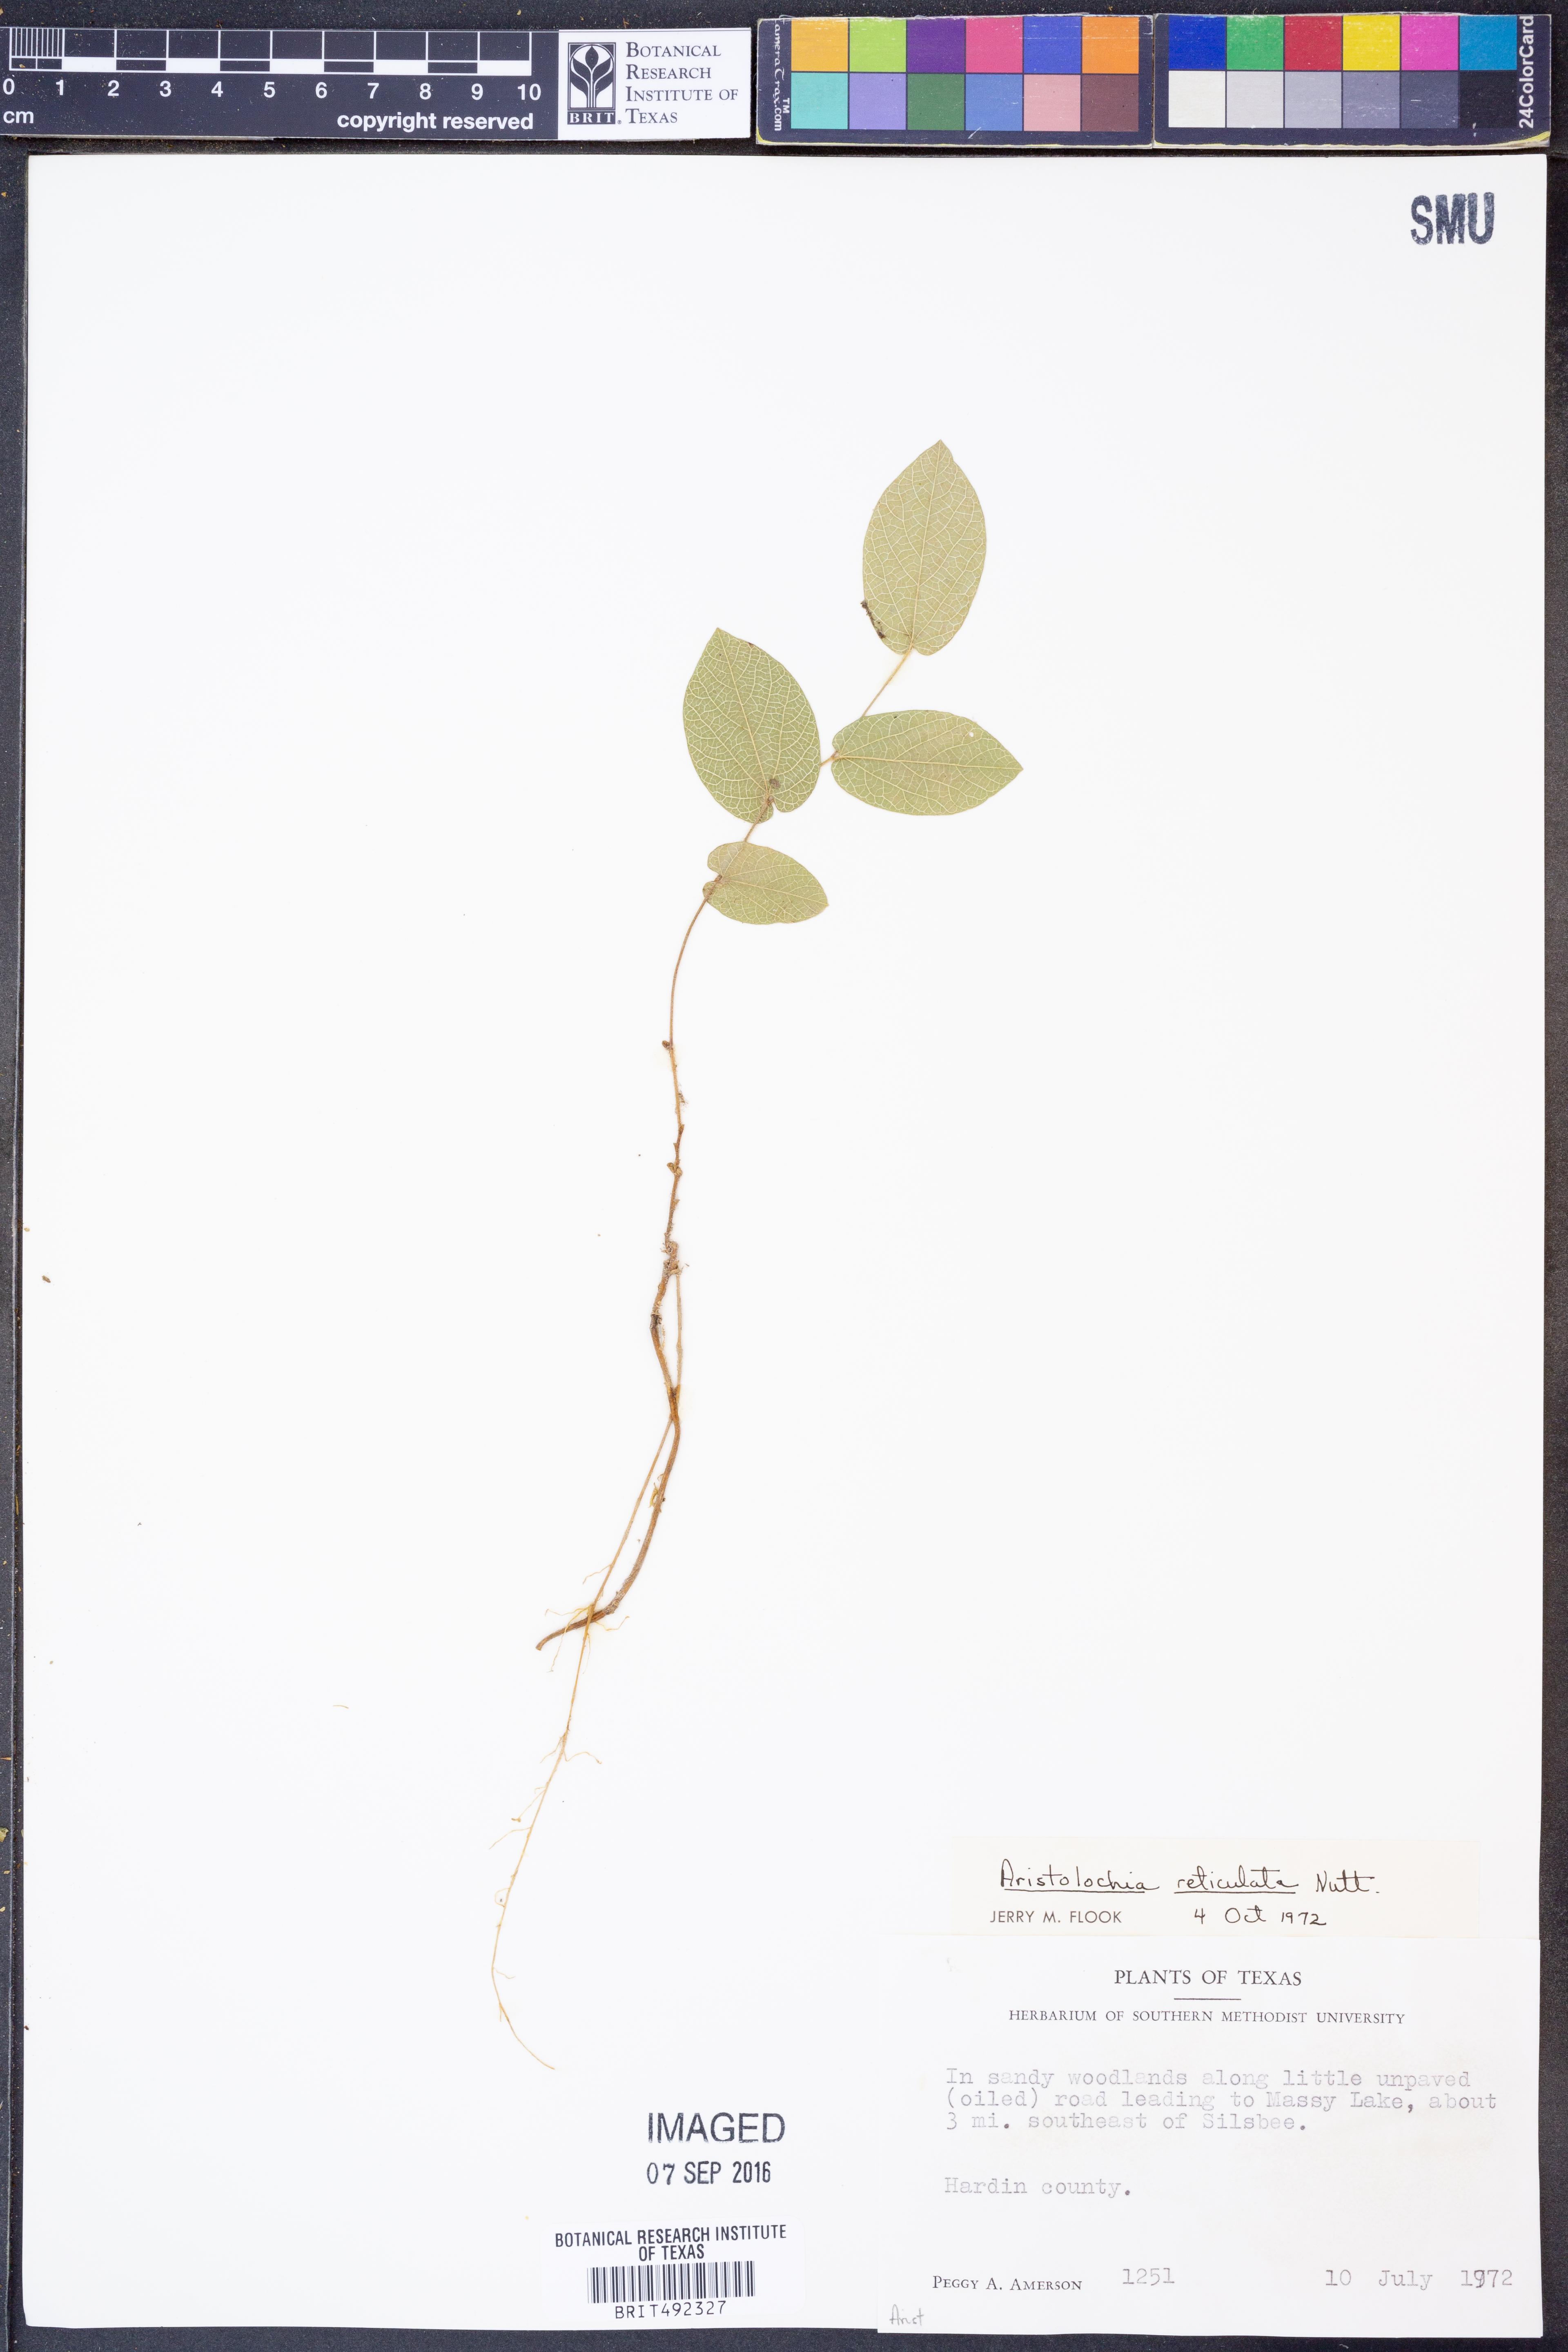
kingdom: Plantae
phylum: Tracheophyta
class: Magnoliopsida
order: Piperales
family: Aristolochiaceae
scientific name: Aristolochiaceae
